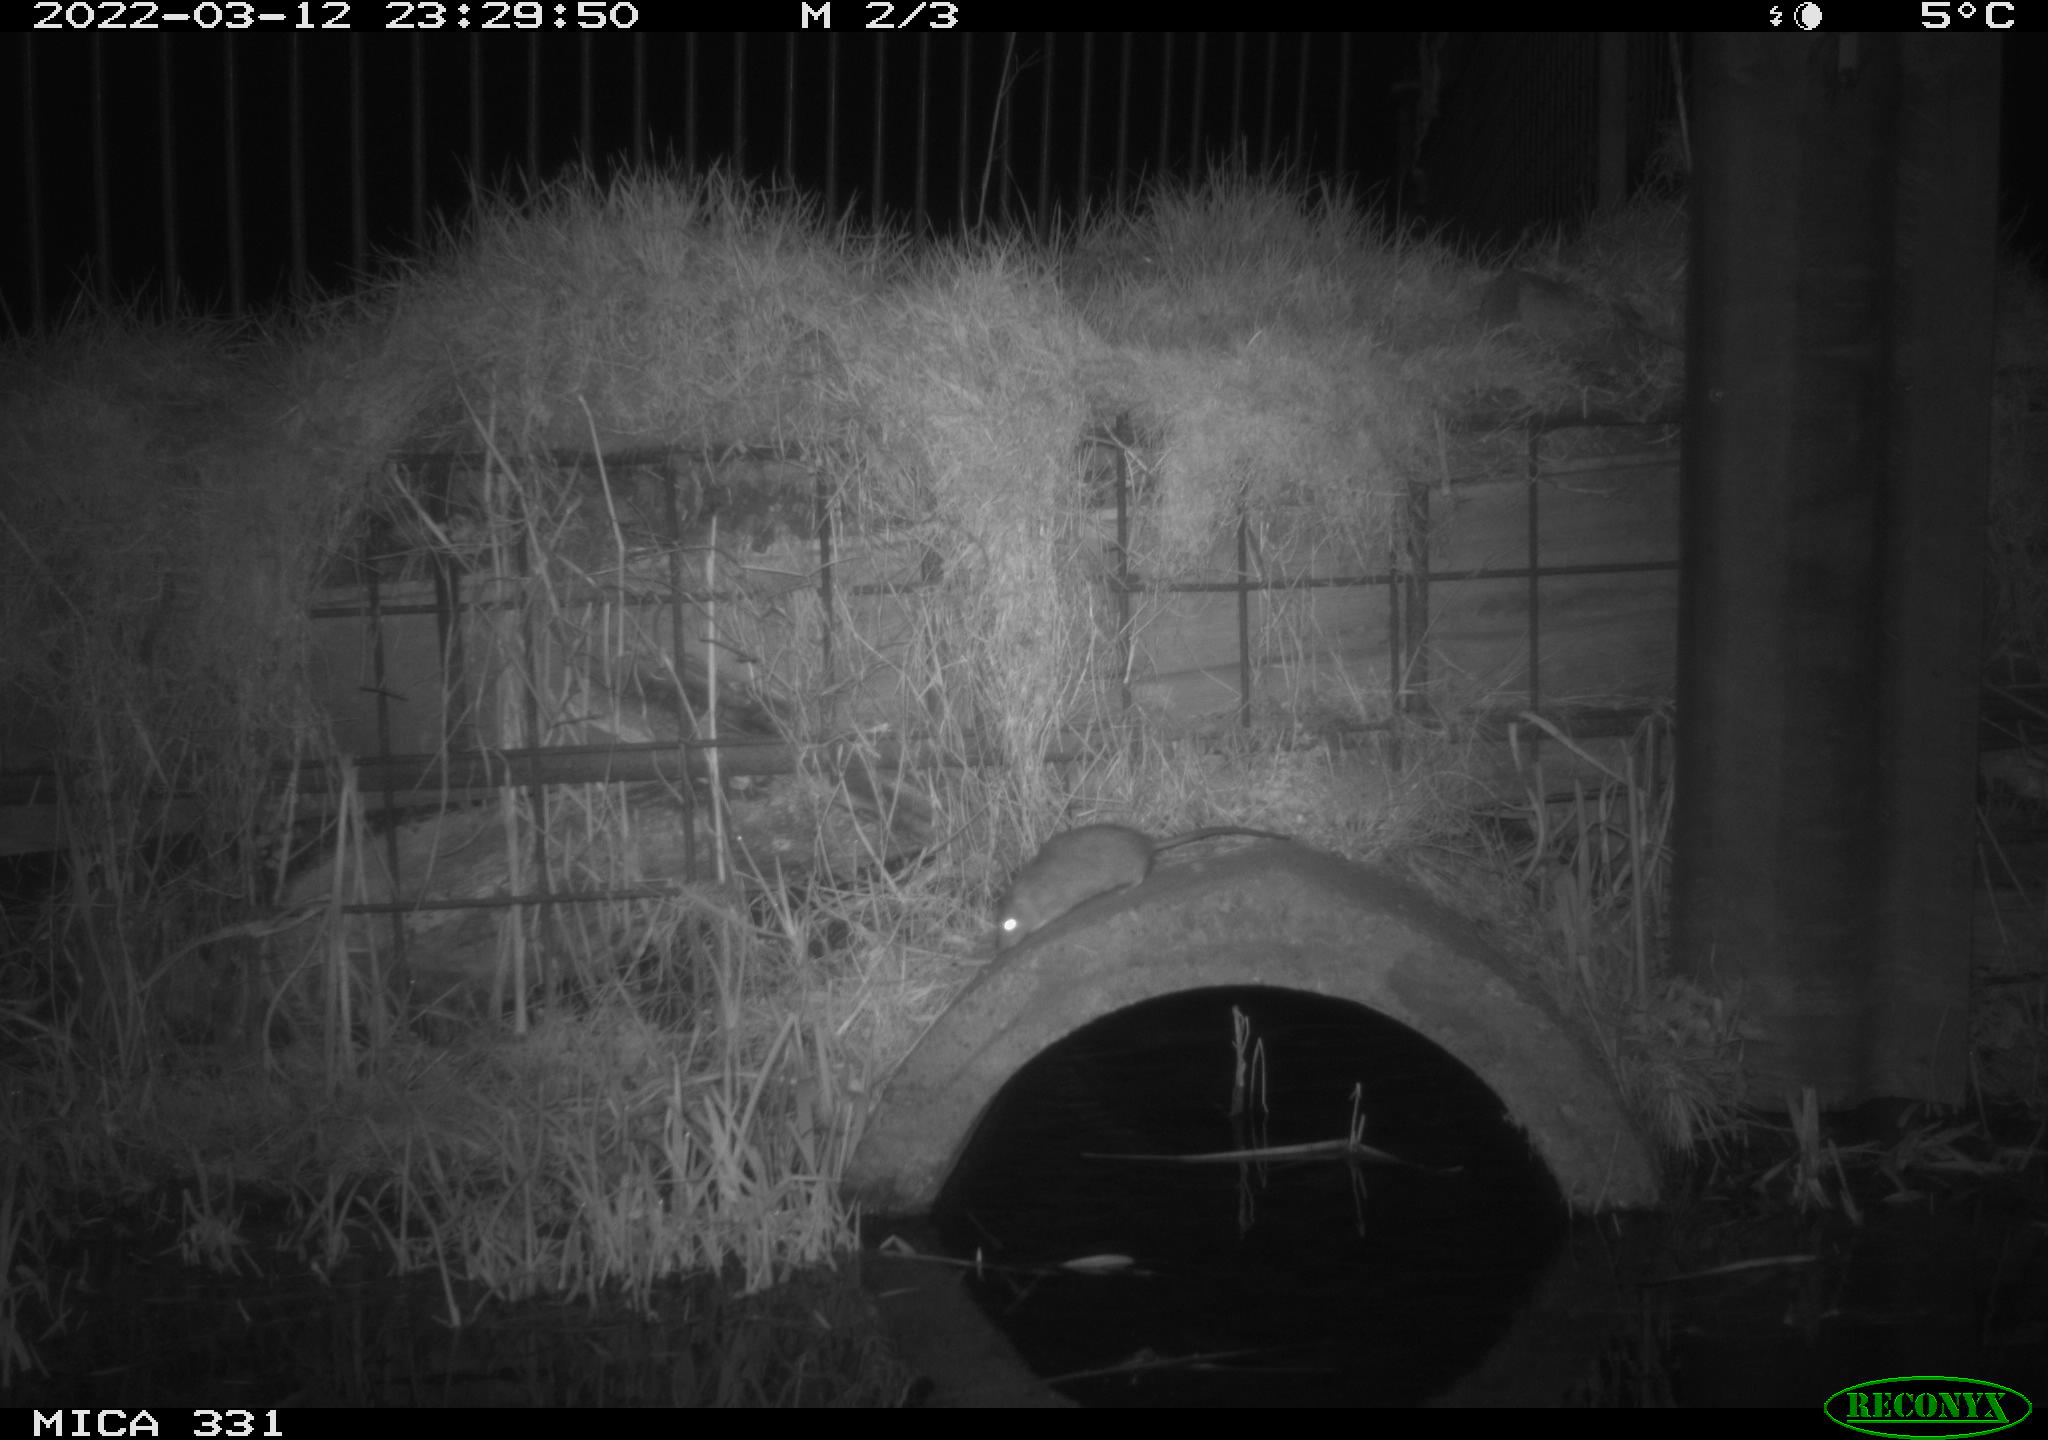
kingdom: Animalia
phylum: Chordata
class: Mammalia
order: Rodentia
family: Muridae
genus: Rattus
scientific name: Rattus norvegicus
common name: Brown rat
